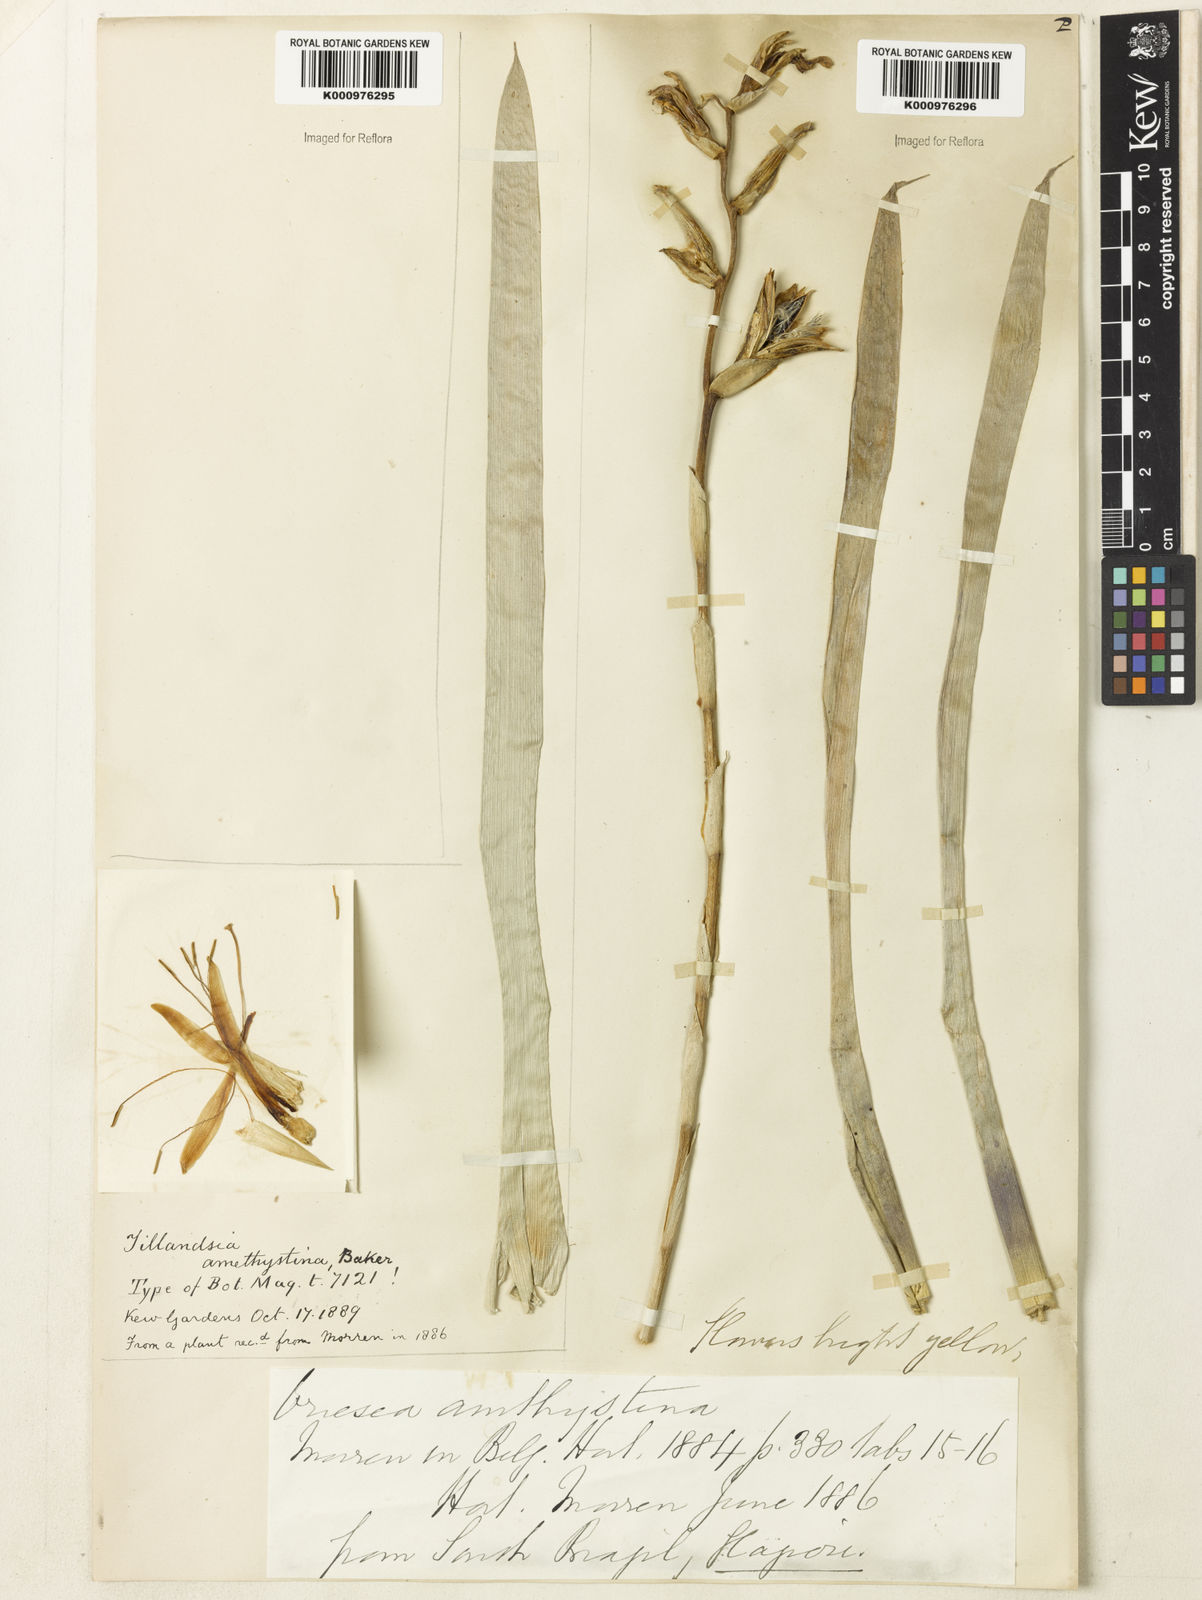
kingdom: Plantae
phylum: Tracheophyta
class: Liliopsida
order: Poales
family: Bromeliaceae
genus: Vriesea
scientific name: Vriesea amethystina
